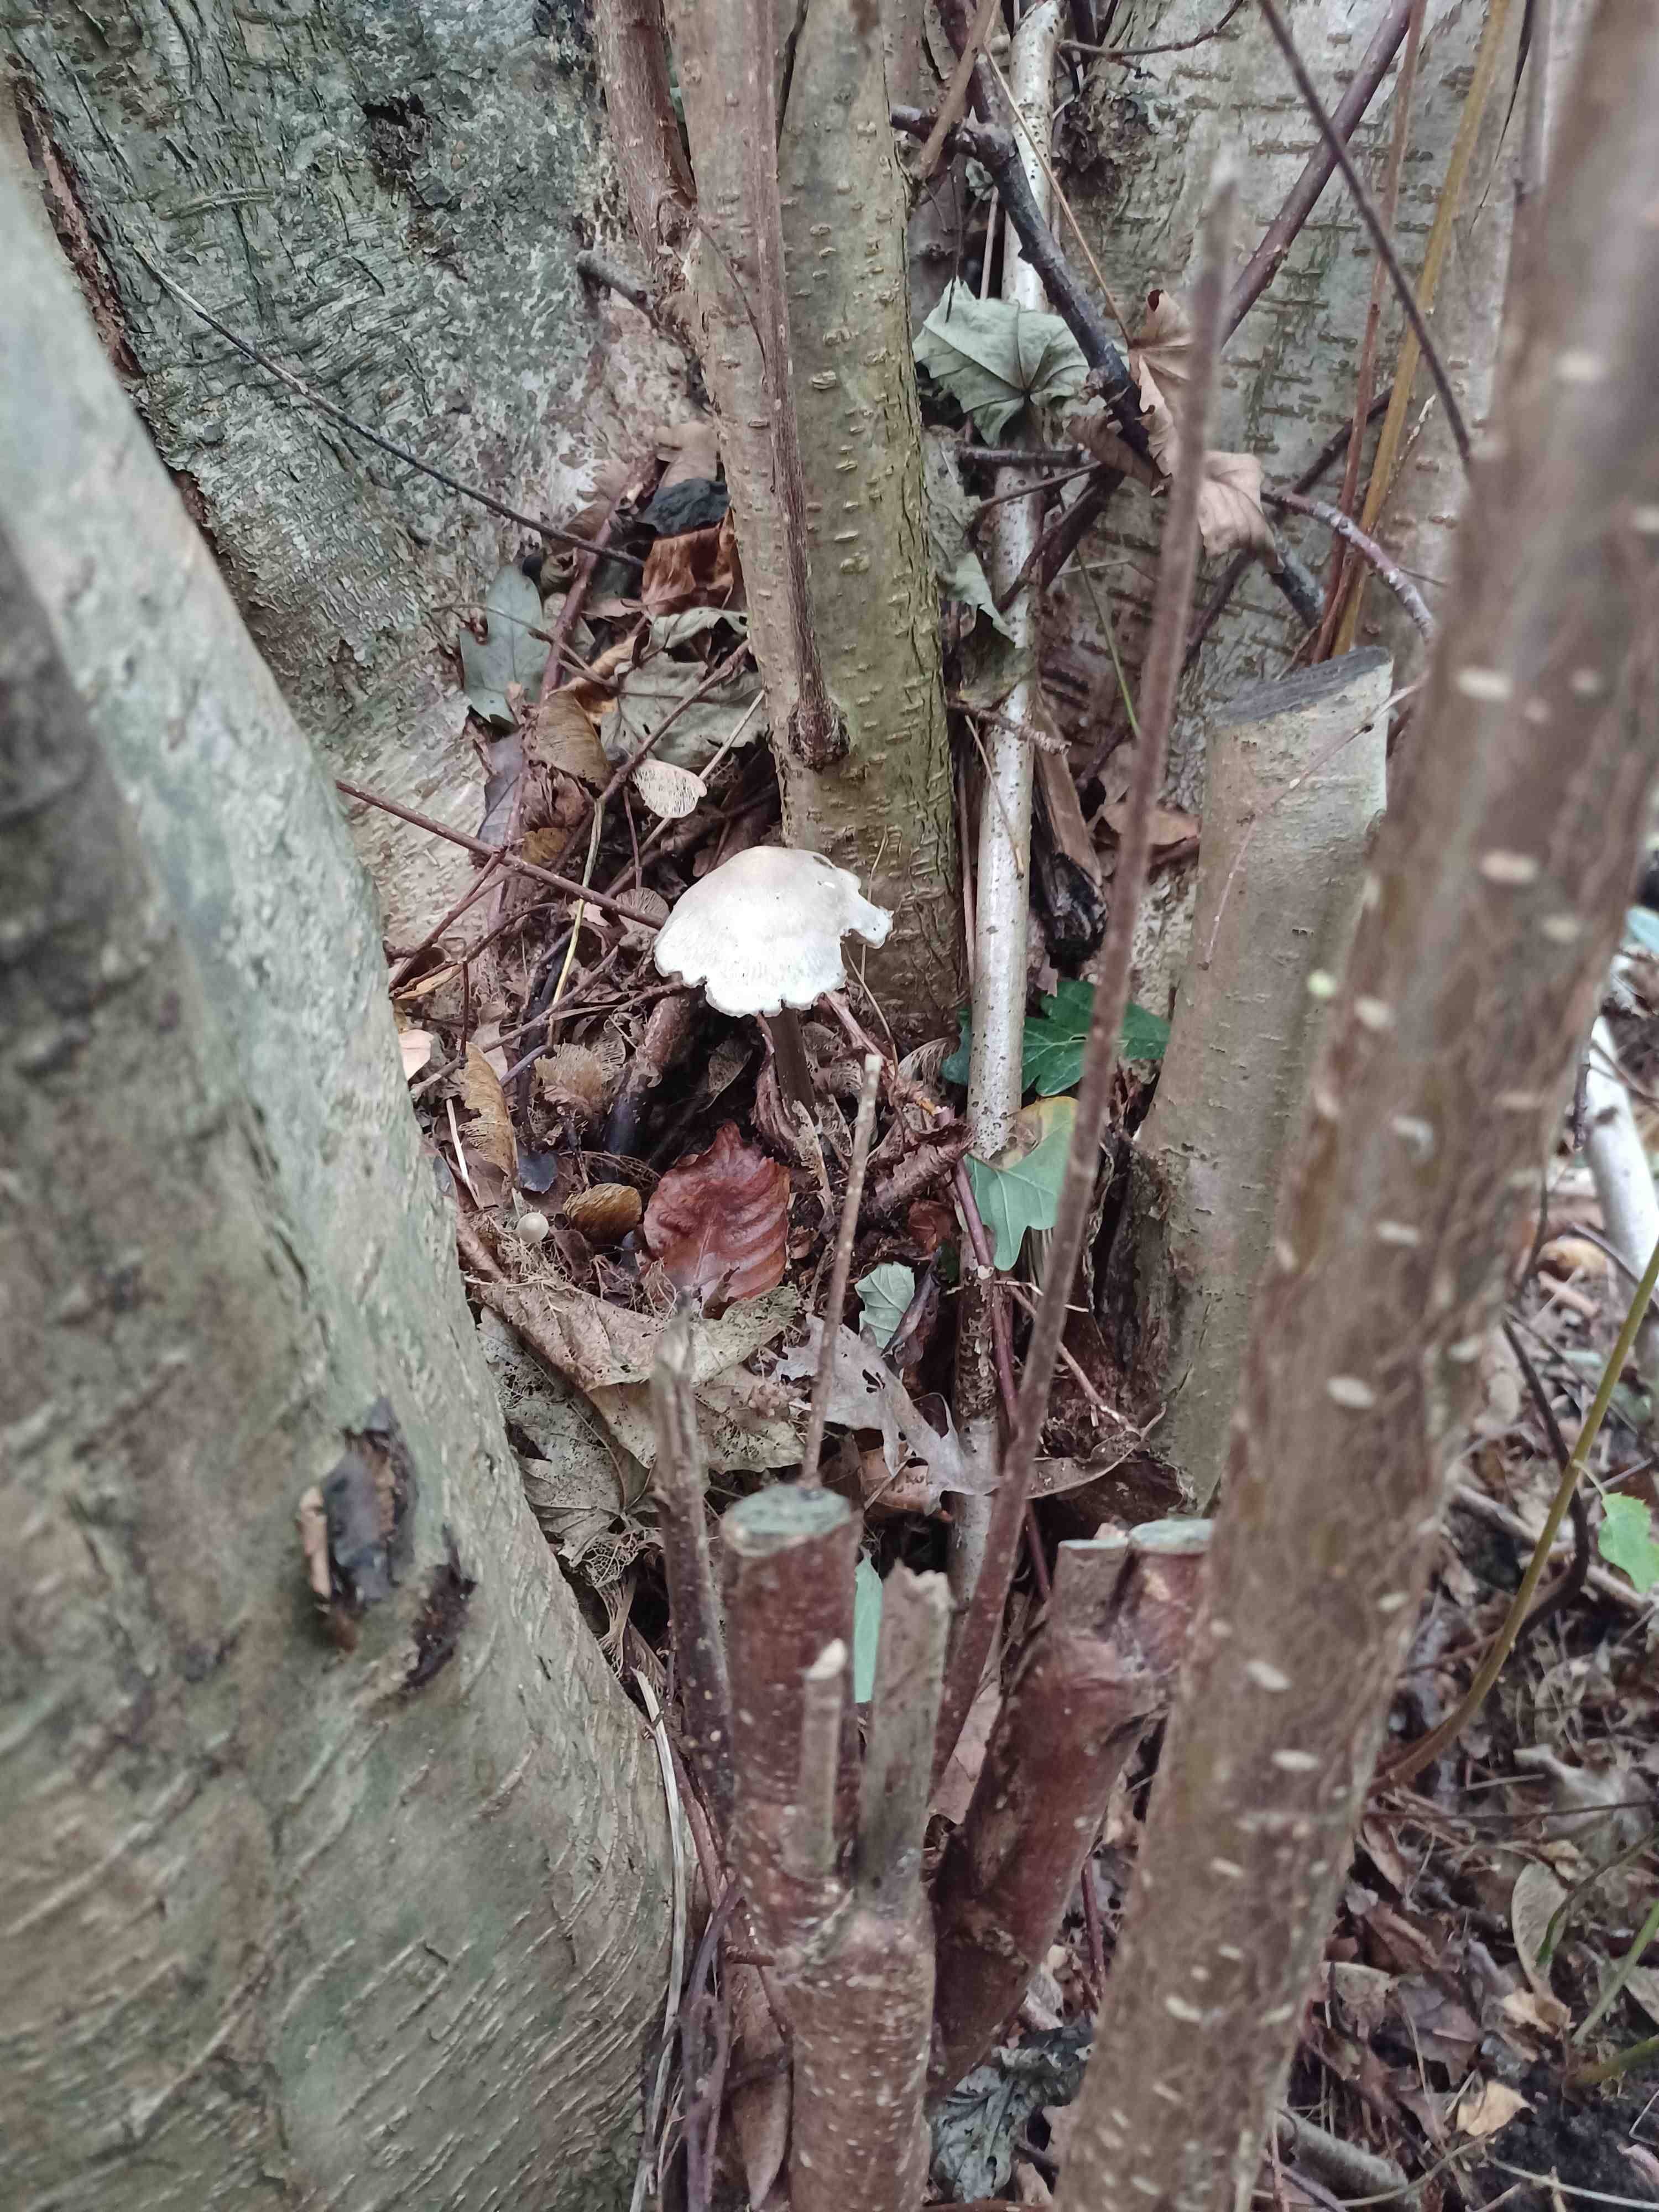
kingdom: Fungi
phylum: Basidiomycota
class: Agaricomycetes
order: Agaricales
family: Mycenaceae
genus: Mycena
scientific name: Mycena galericulata
